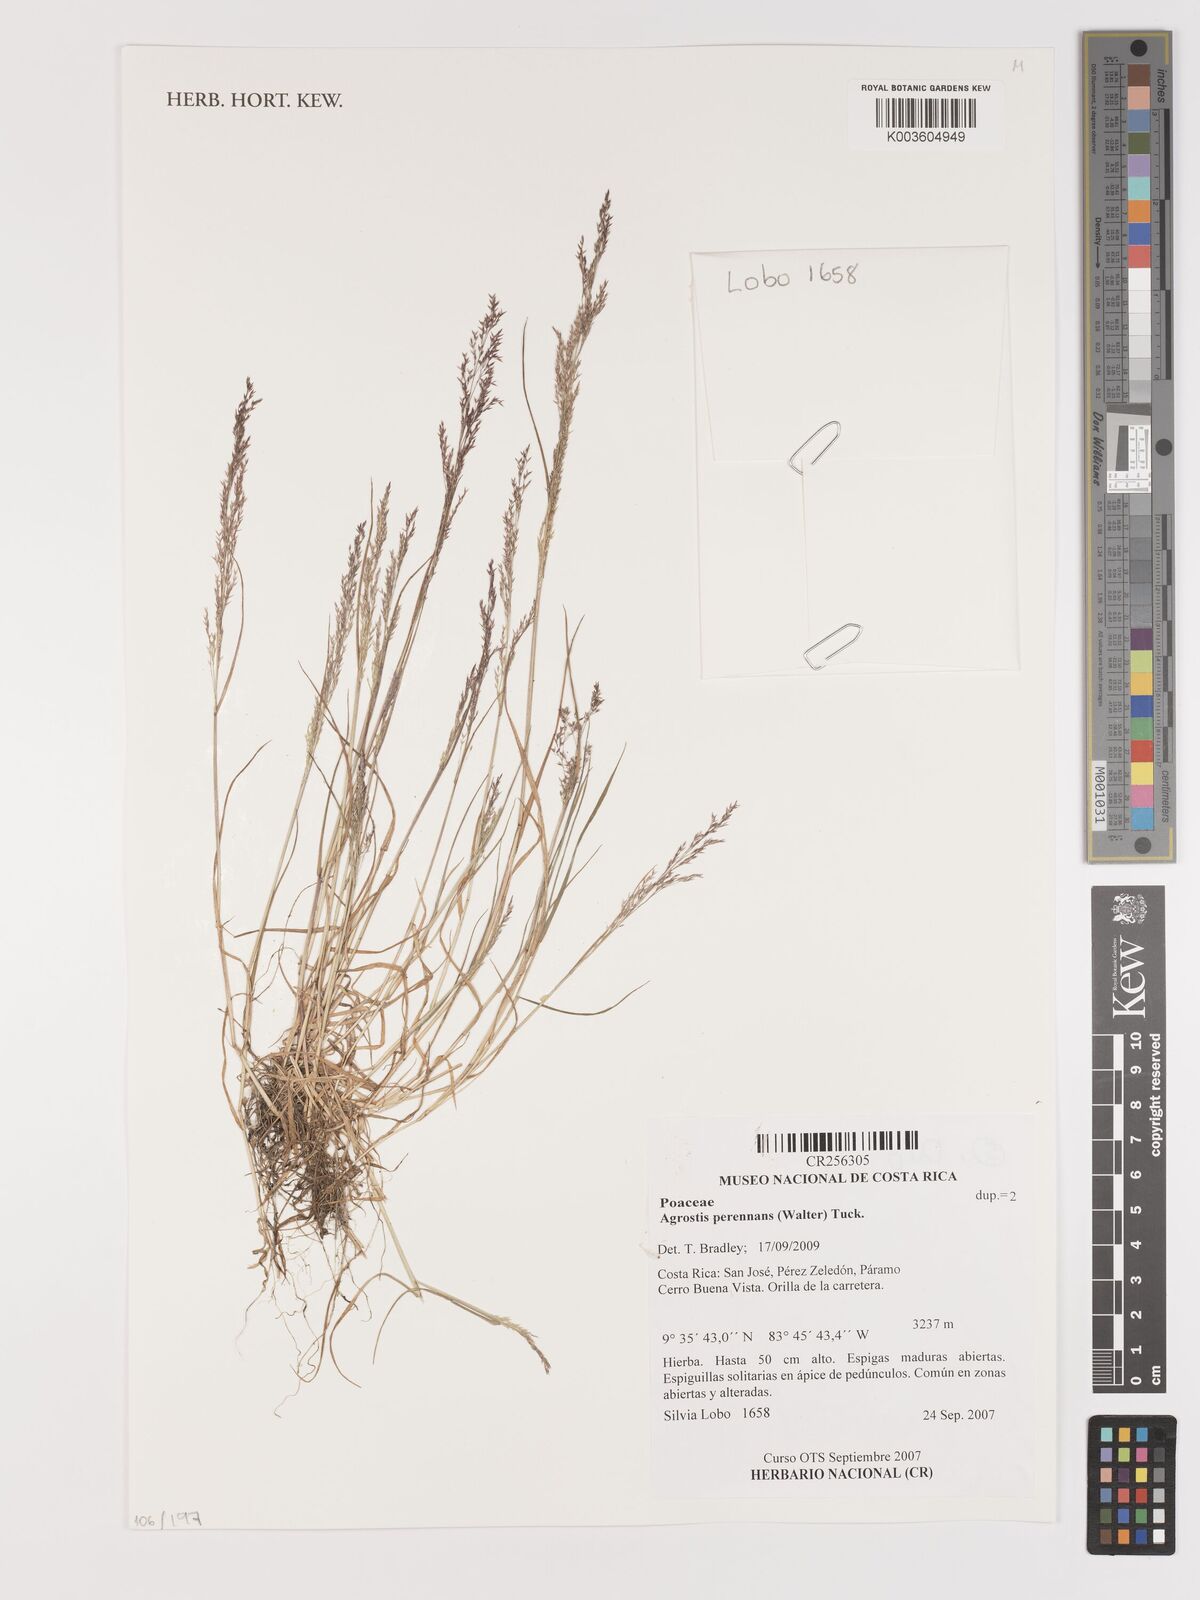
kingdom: Plantae
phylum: Tracheophyta
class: Liliopsida
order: Poales
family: Poaceae
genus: Agrostis
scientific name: Agrostis perennans
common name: Autumn bent
